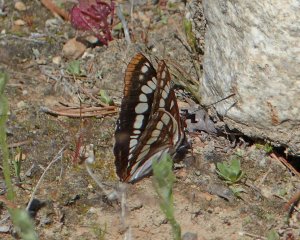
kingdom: Animalia
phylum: Arthropoda
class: Insecta
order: Lepidoptera
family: Nymphalidae
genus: Limenitis
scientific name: Limenitis lorquini
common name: Lorquin's Admiral
